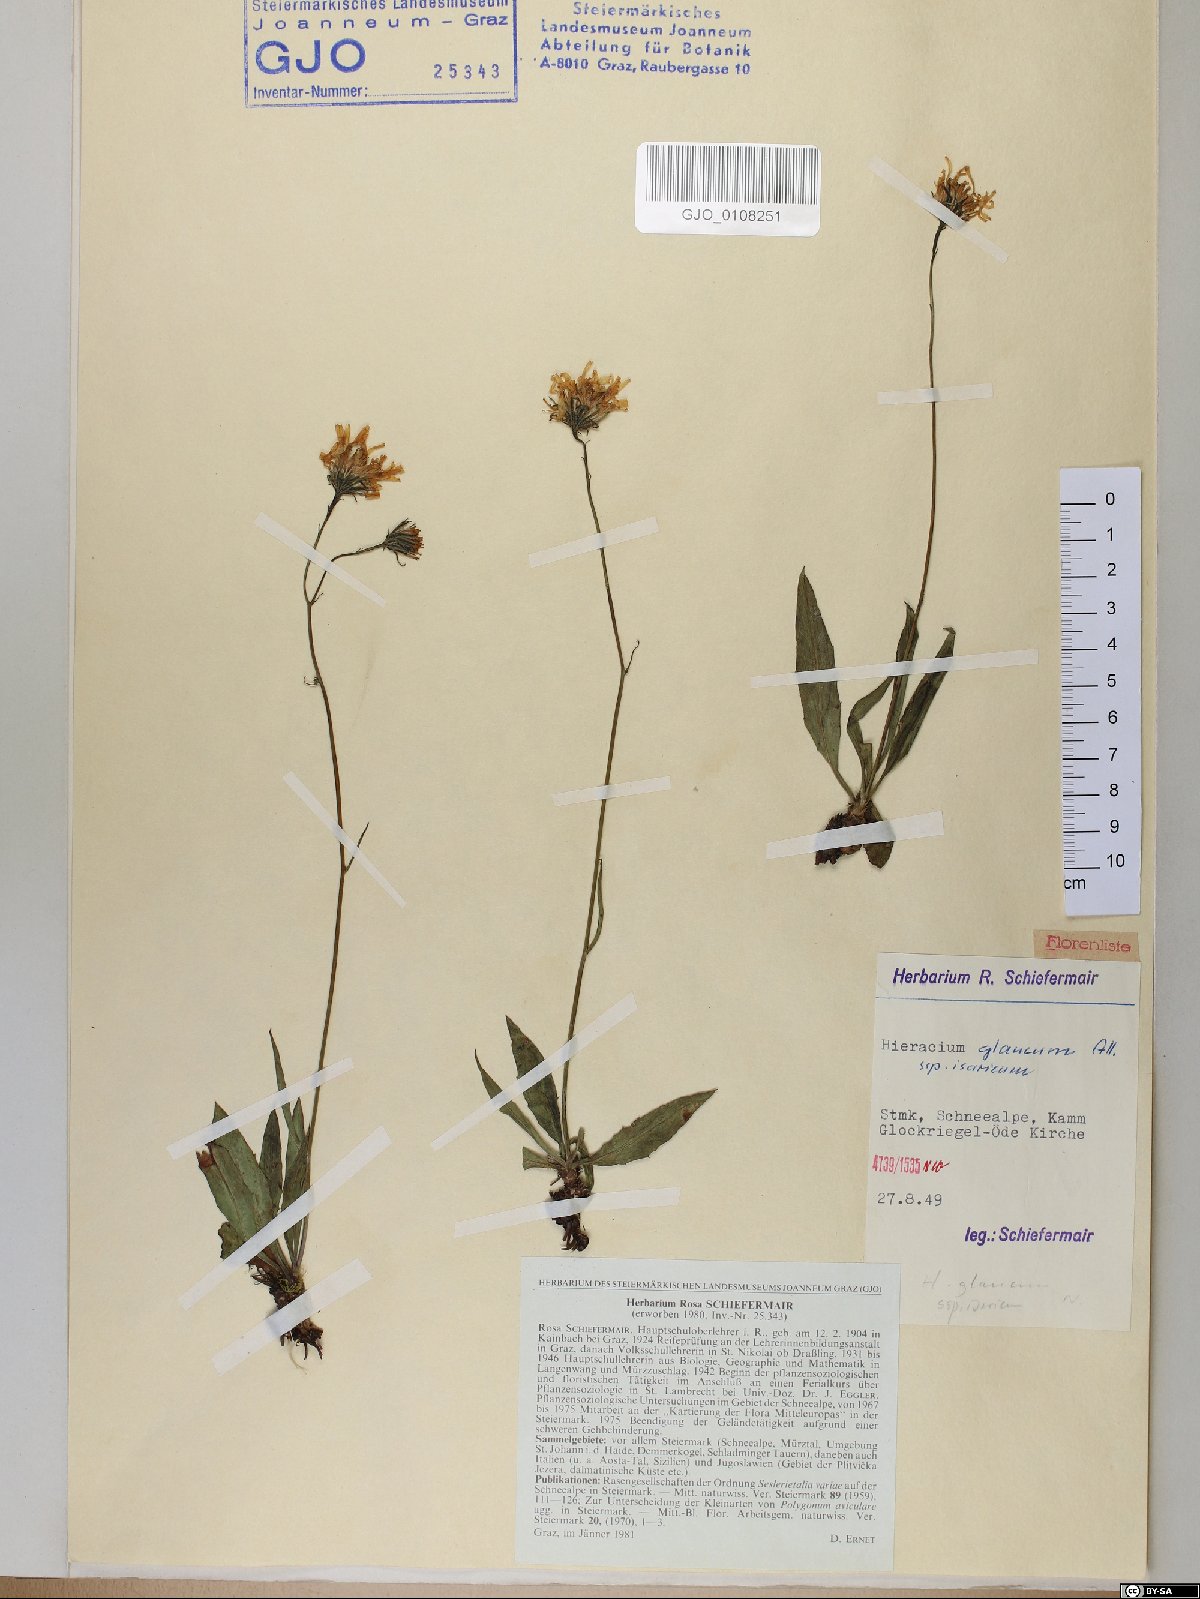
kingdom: Plantae
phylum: Tracheophyta
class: Magnoliopsida
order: Asterales
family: Asteraceae
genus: Hieracium
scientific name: Hieracium glaucum
